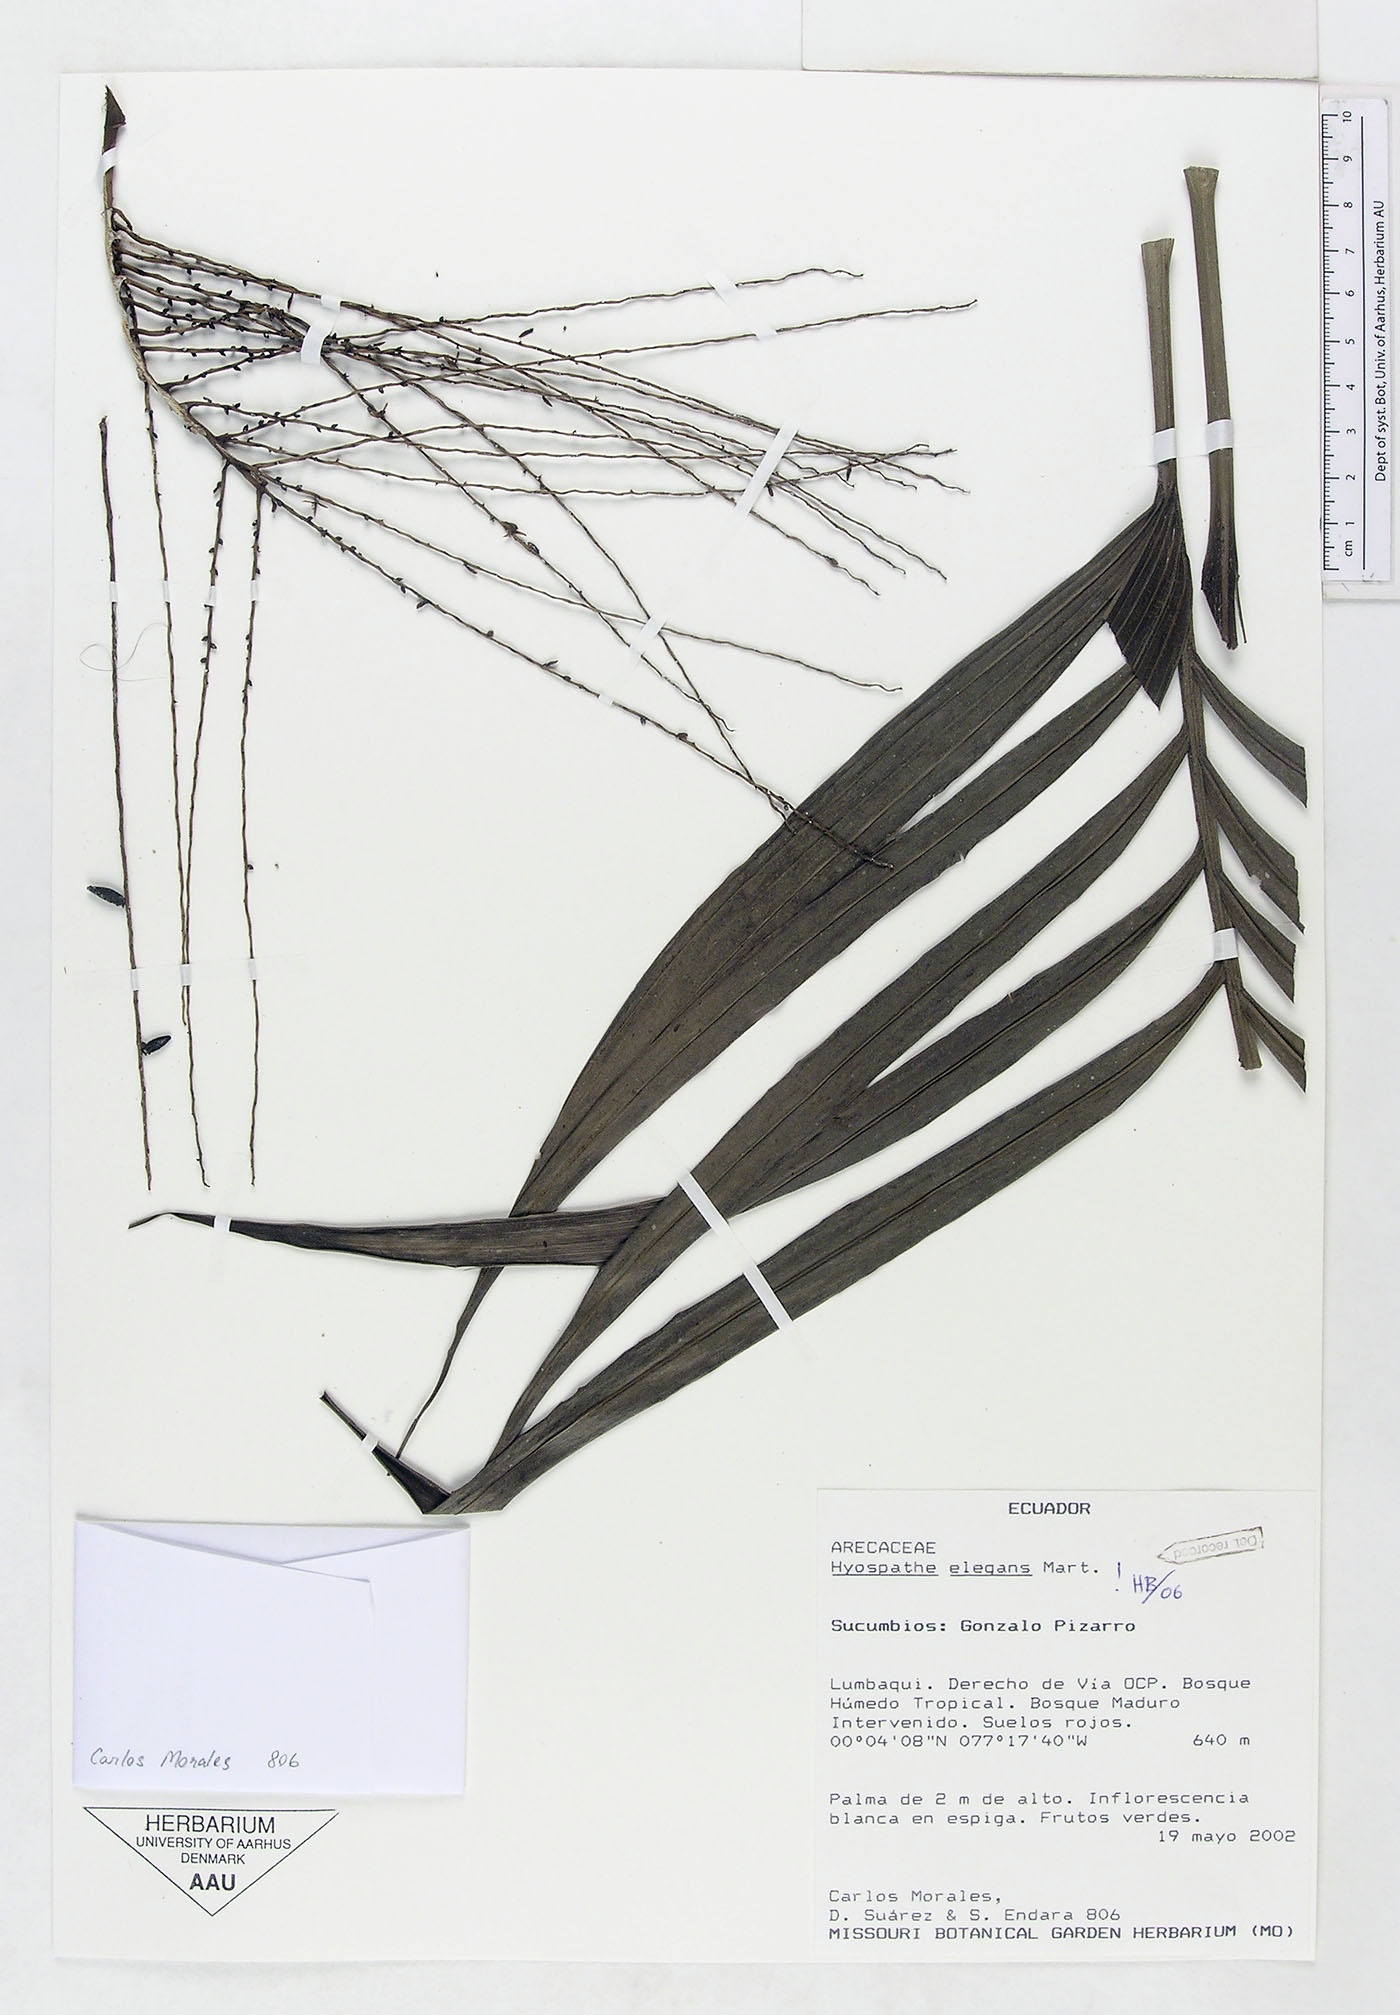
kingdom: Plantae
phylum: Tracheophyta
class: Liliopsida
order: Arecales
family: Arecaceae
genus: Hyospathe
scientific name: Hyospathe elegans
